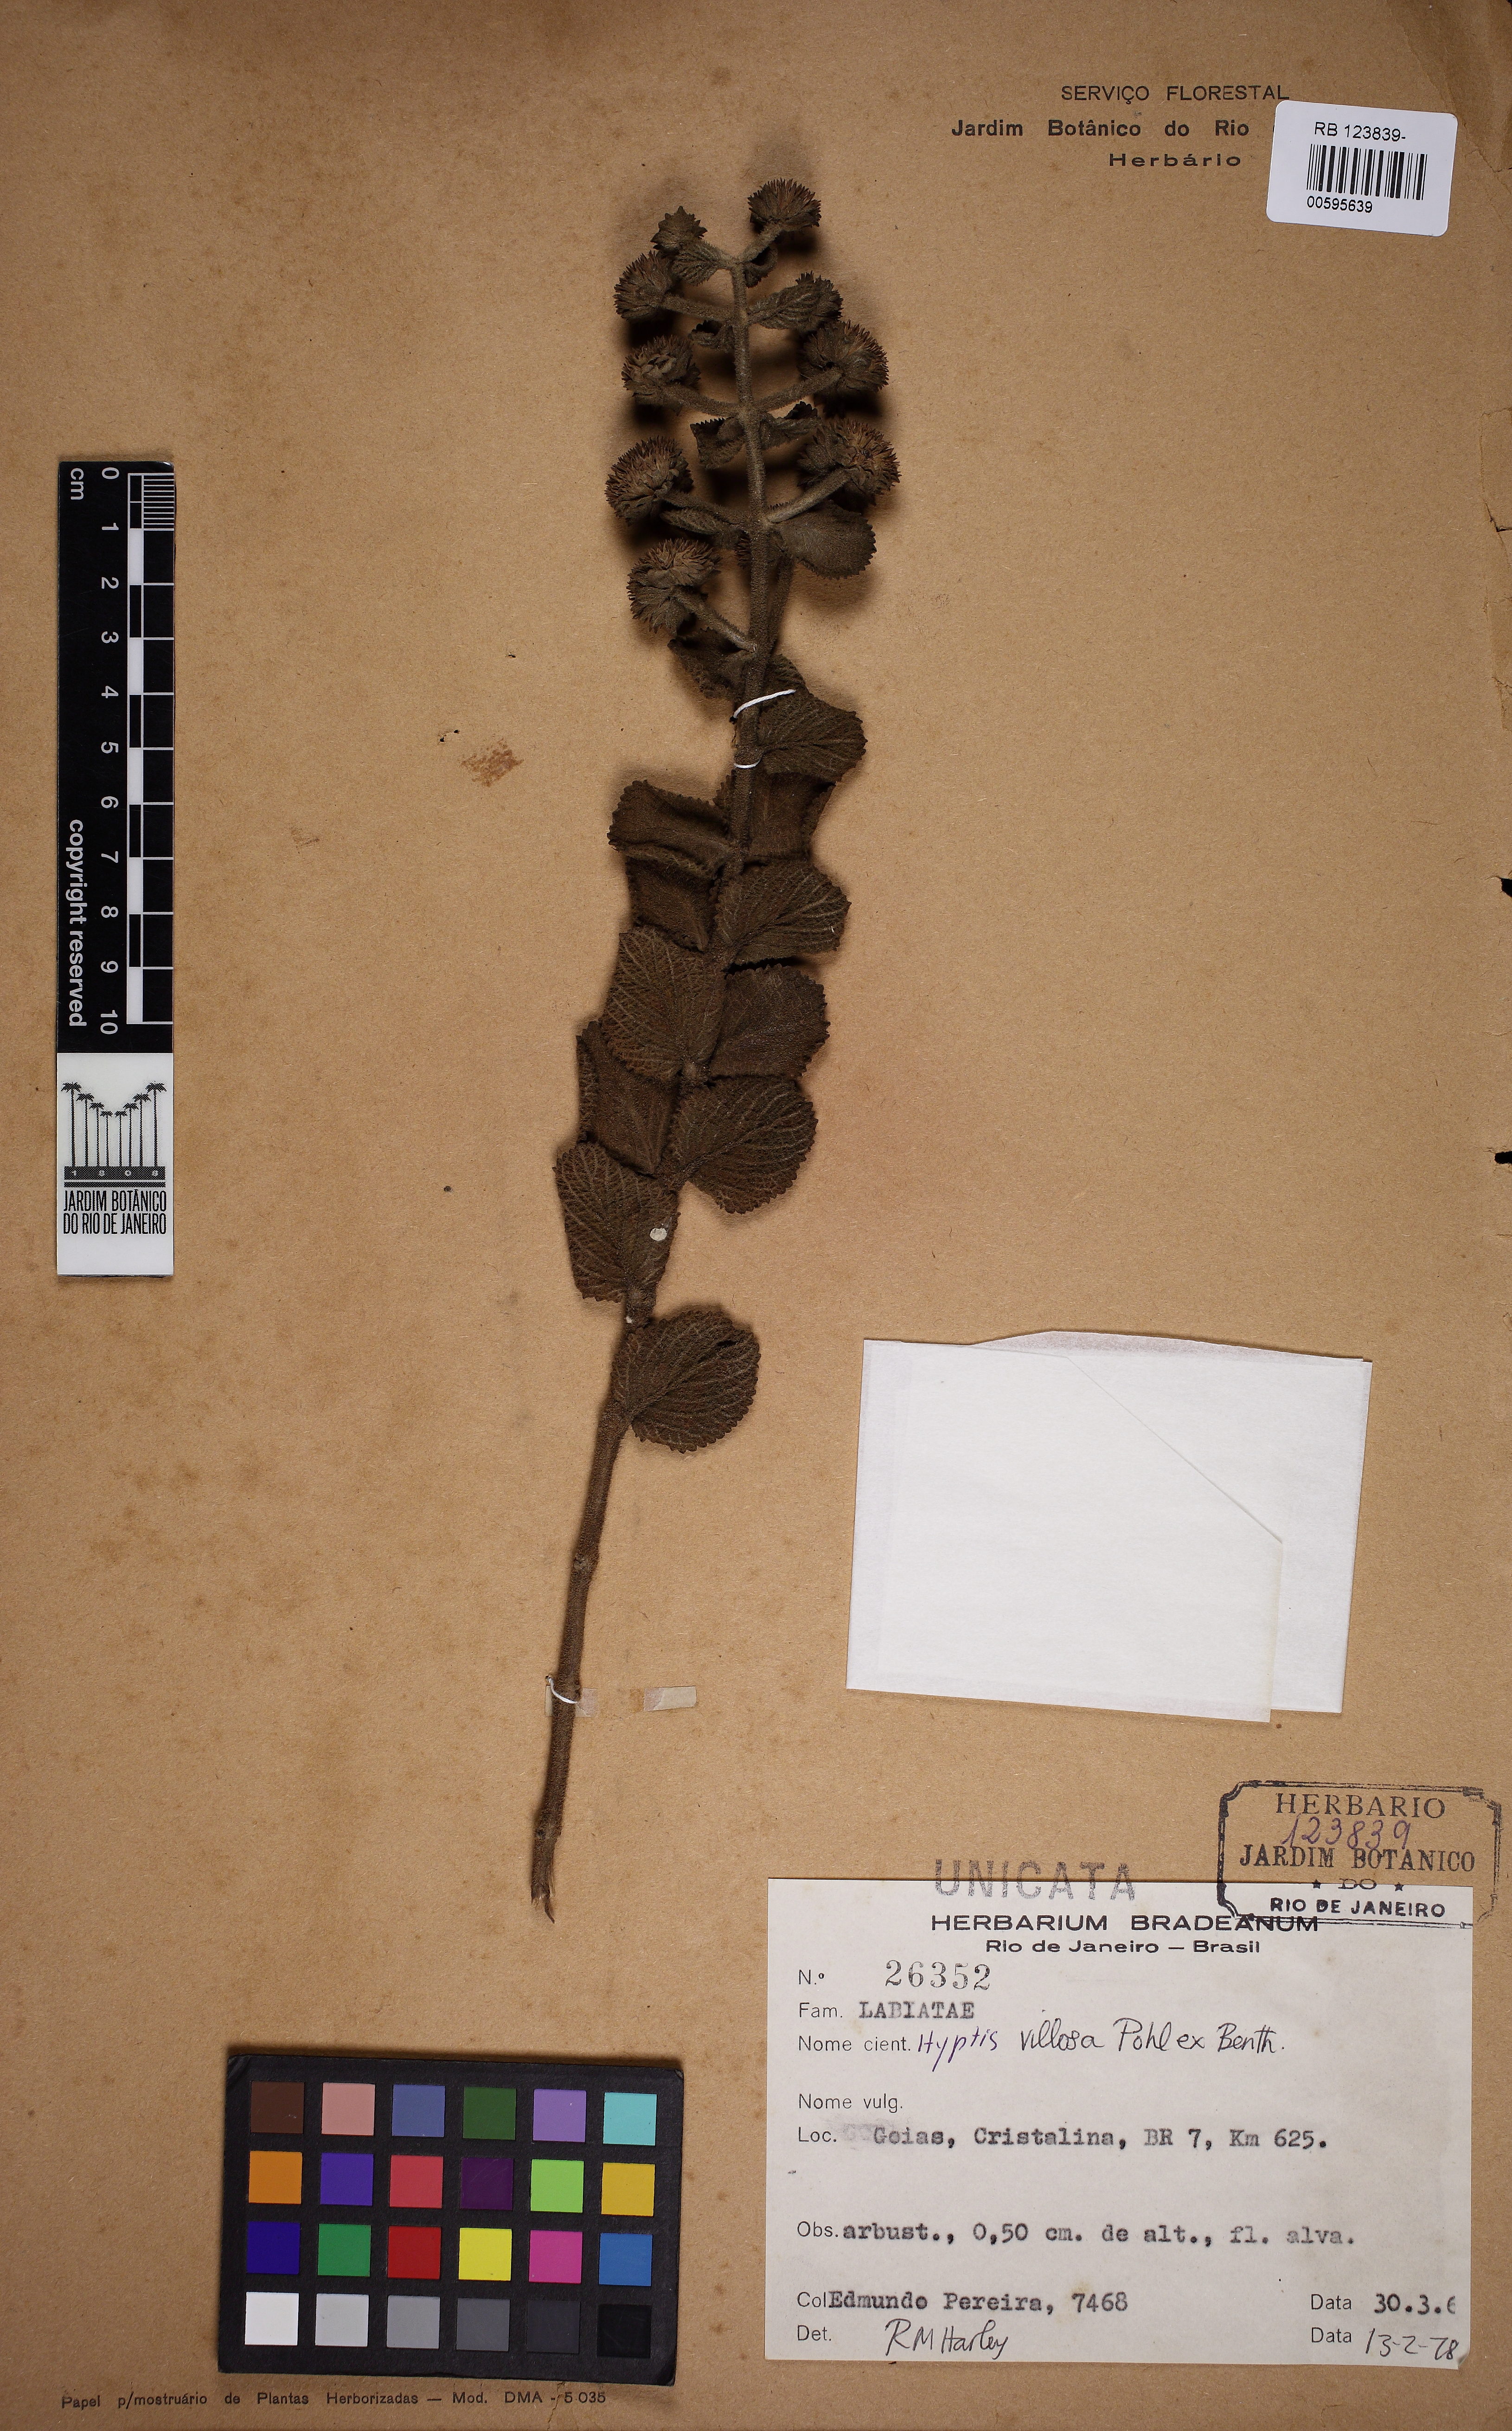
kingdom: Plantae
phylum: Tracheophyta
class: Magnoliopsida
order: Lamiales
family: Lamiaceae
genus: Hyptis
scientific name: Hyptis villosa
